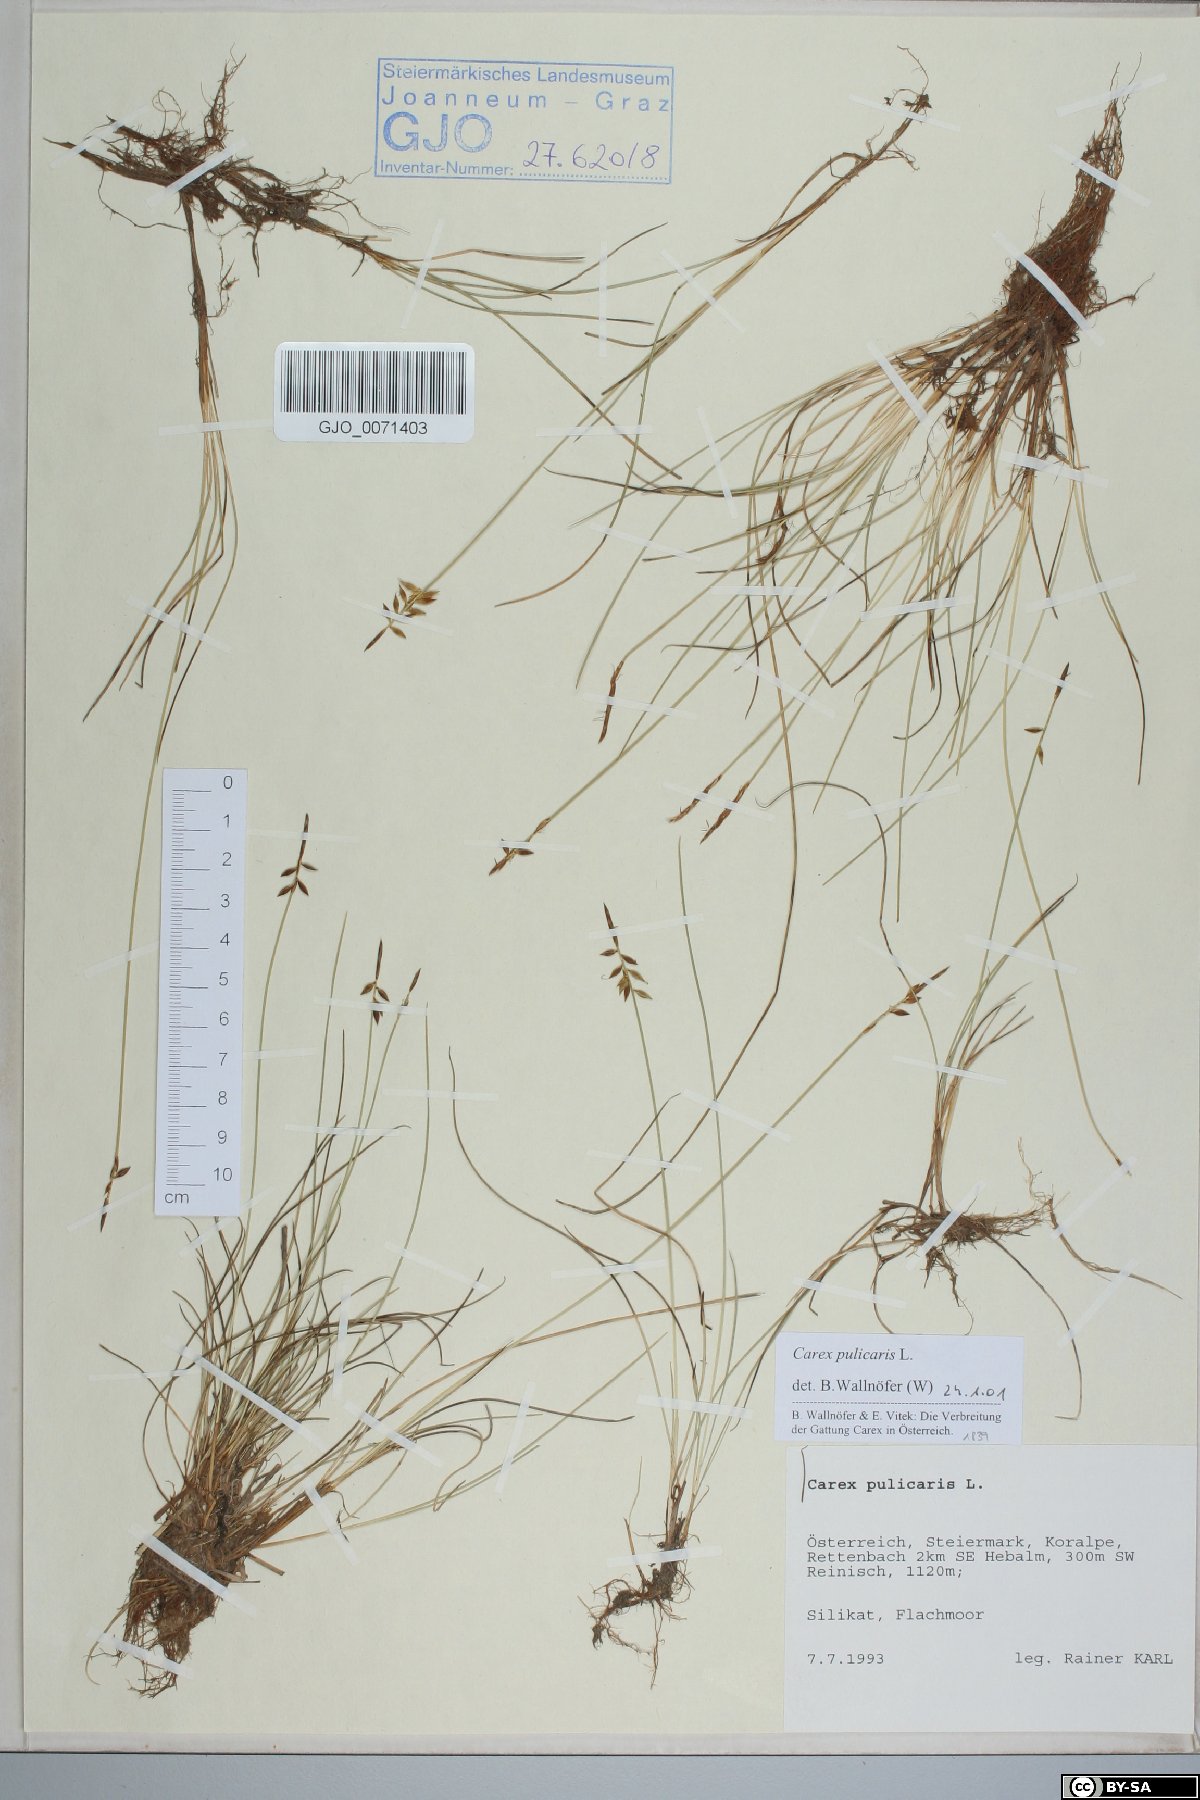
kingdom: Plantae
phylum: Tracheophyta
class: Liliopsida
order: Poales
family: Cyperaceae
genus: Carex
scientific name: Carex pulicaris
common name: Flea sedge
